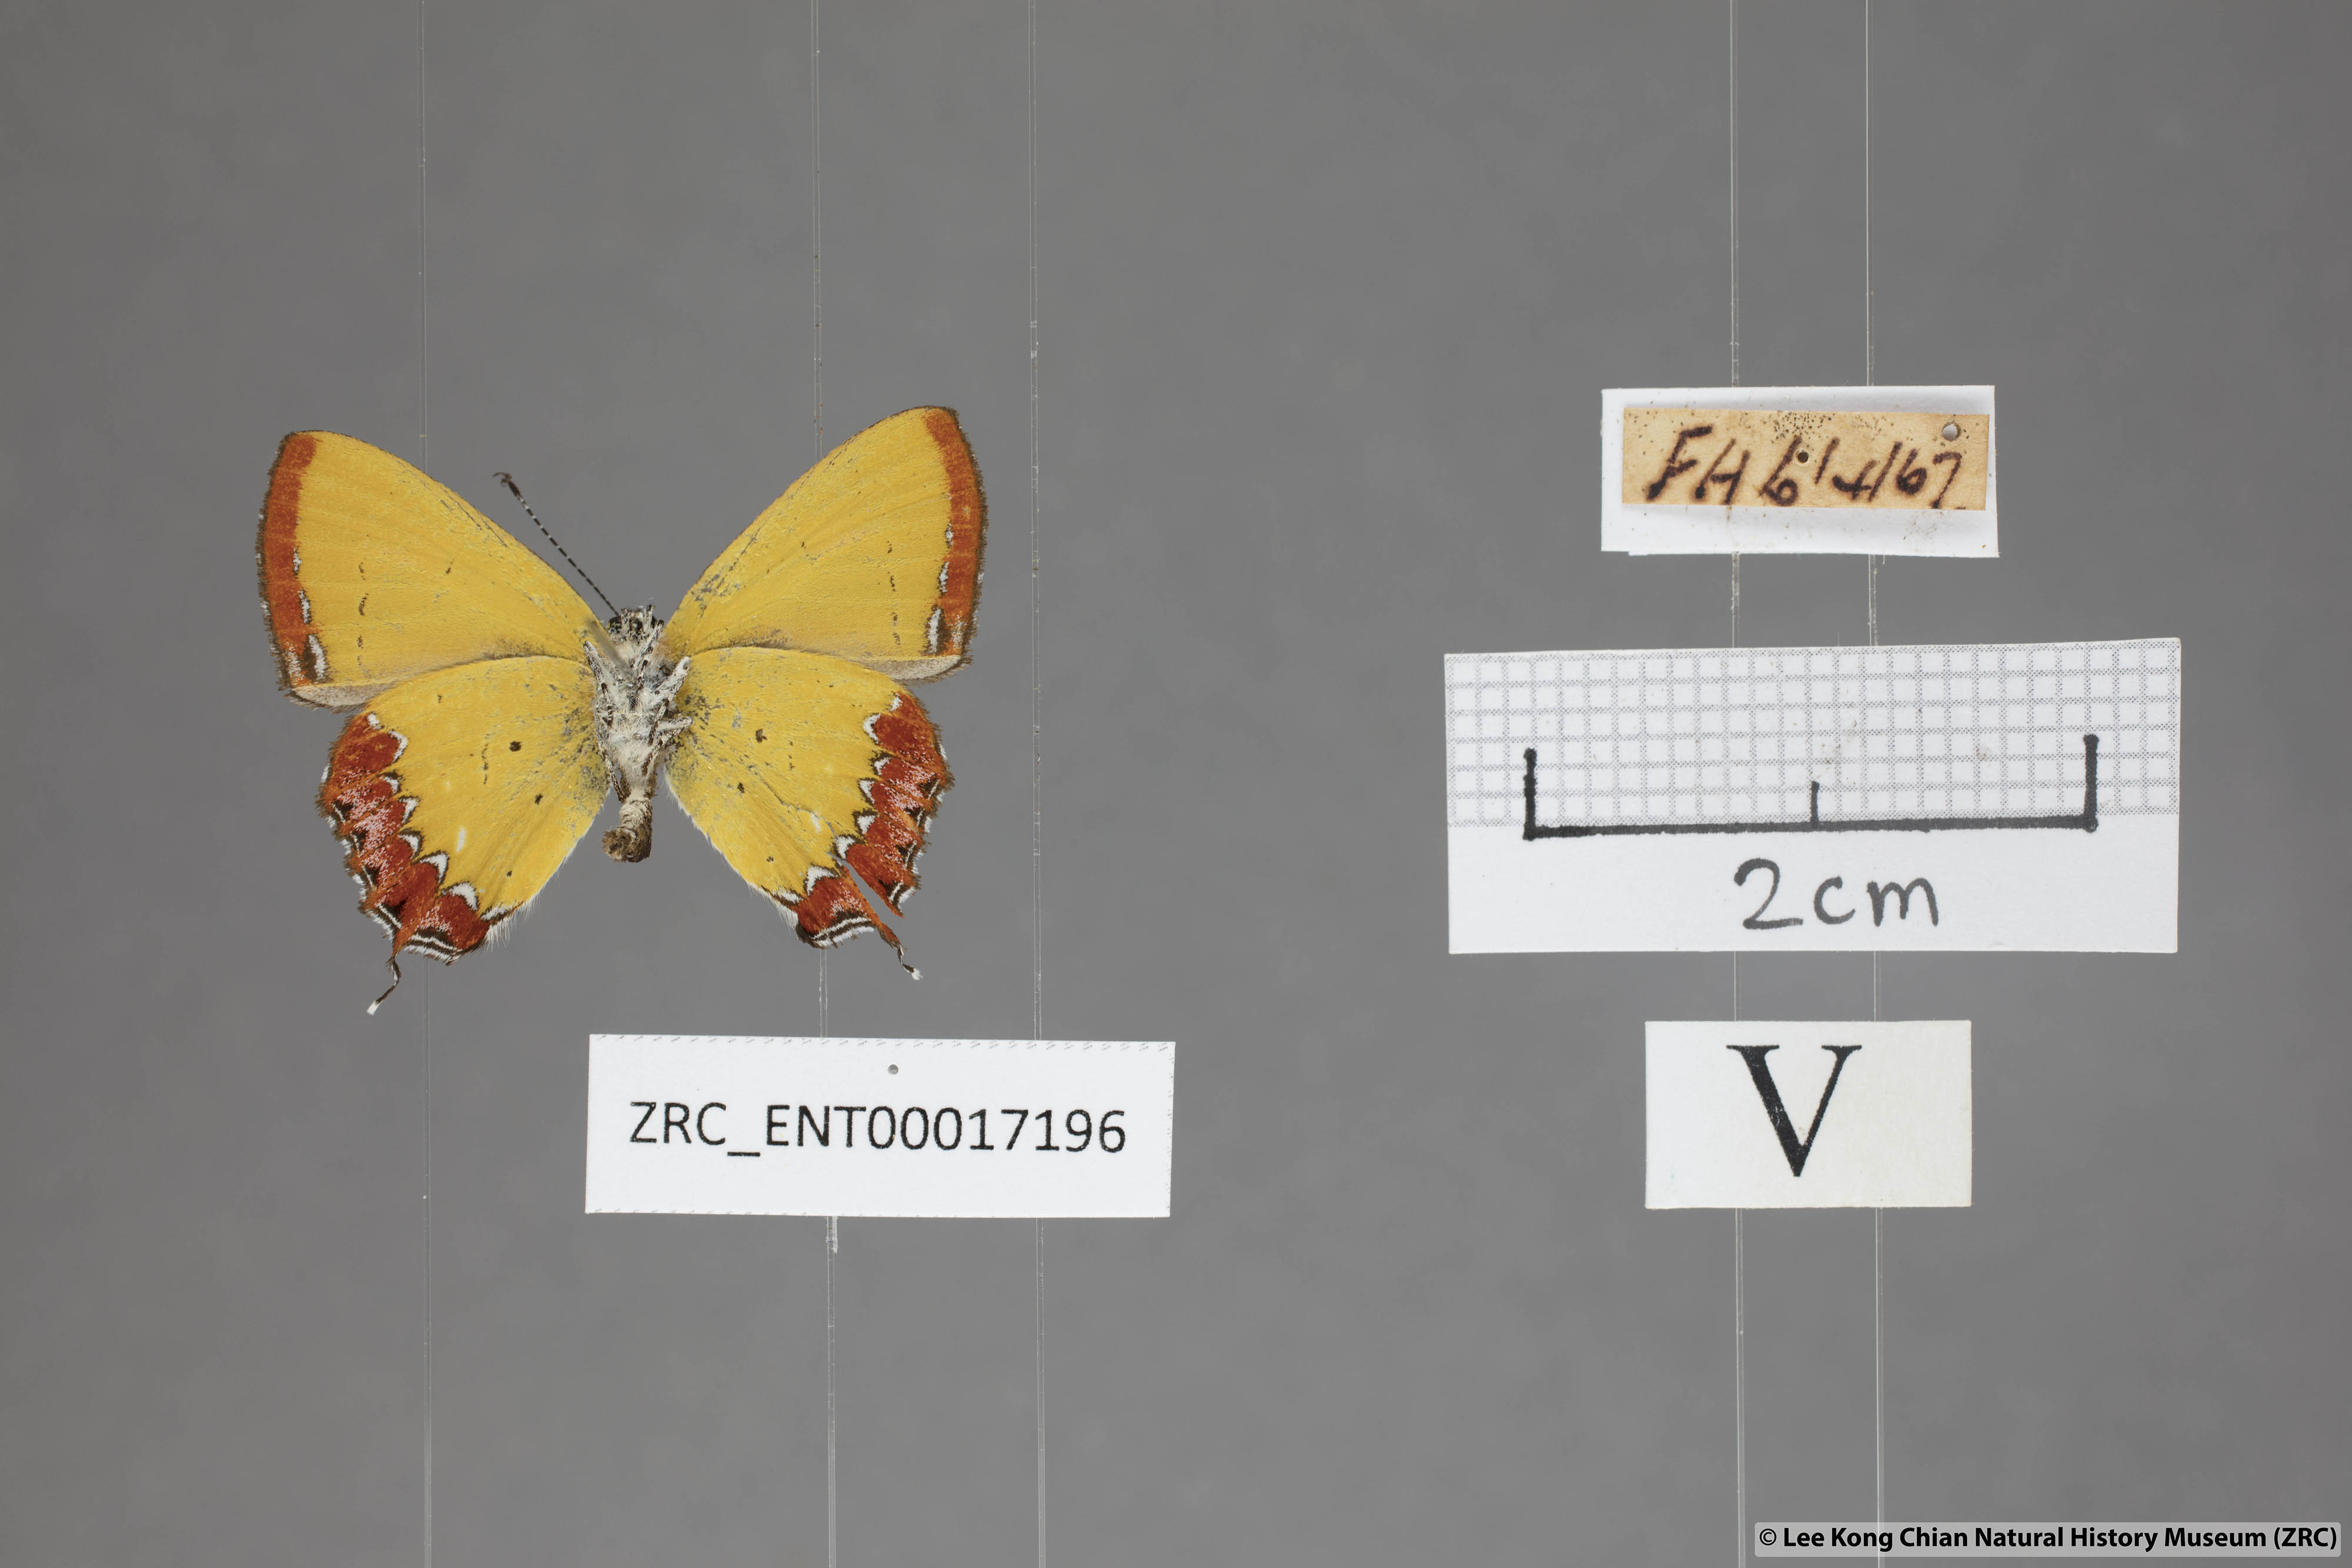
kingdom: Animalia
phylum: Arthropoda
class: Insecta
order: Lepidoptera
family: Lycaenidae
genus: Heliophorus
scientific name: Heliophorus epicles
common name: Purple sapphire
